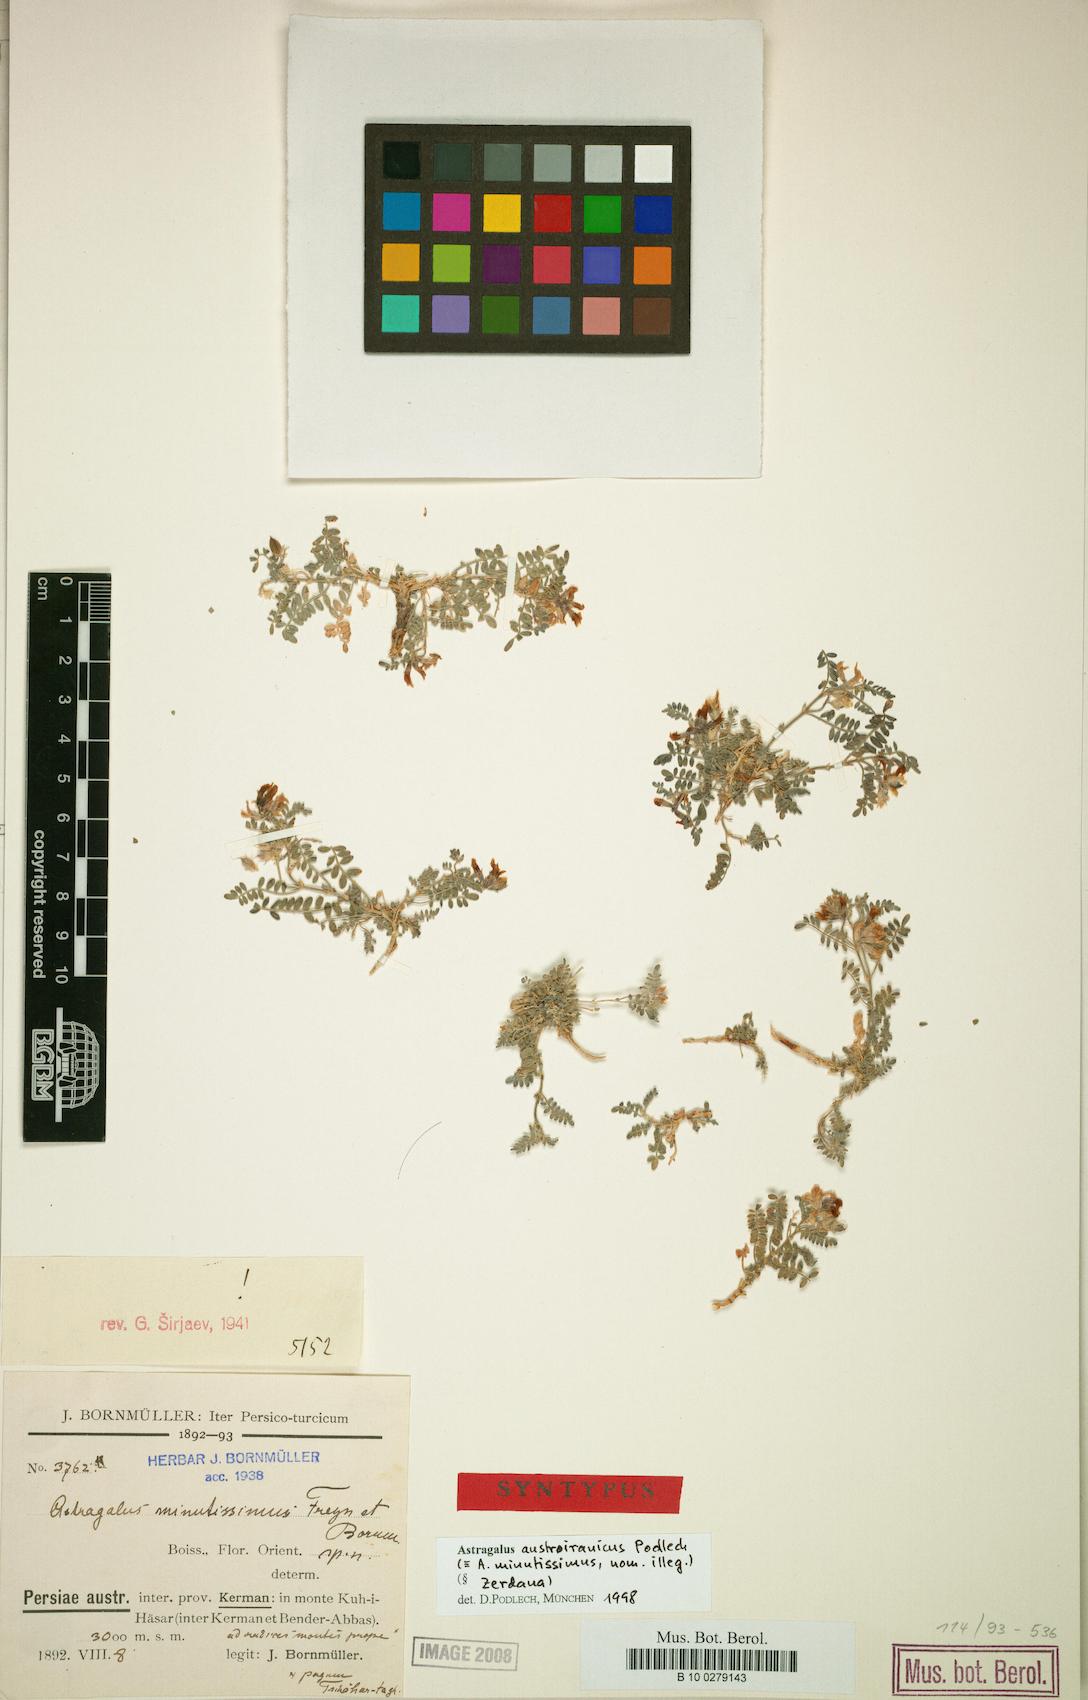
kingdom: Plantae
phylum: Tracheophyta
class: Magnoliopsida
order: Fabales
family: Fabaceae
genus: Astragalus
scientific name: Astragalus confertiformis
